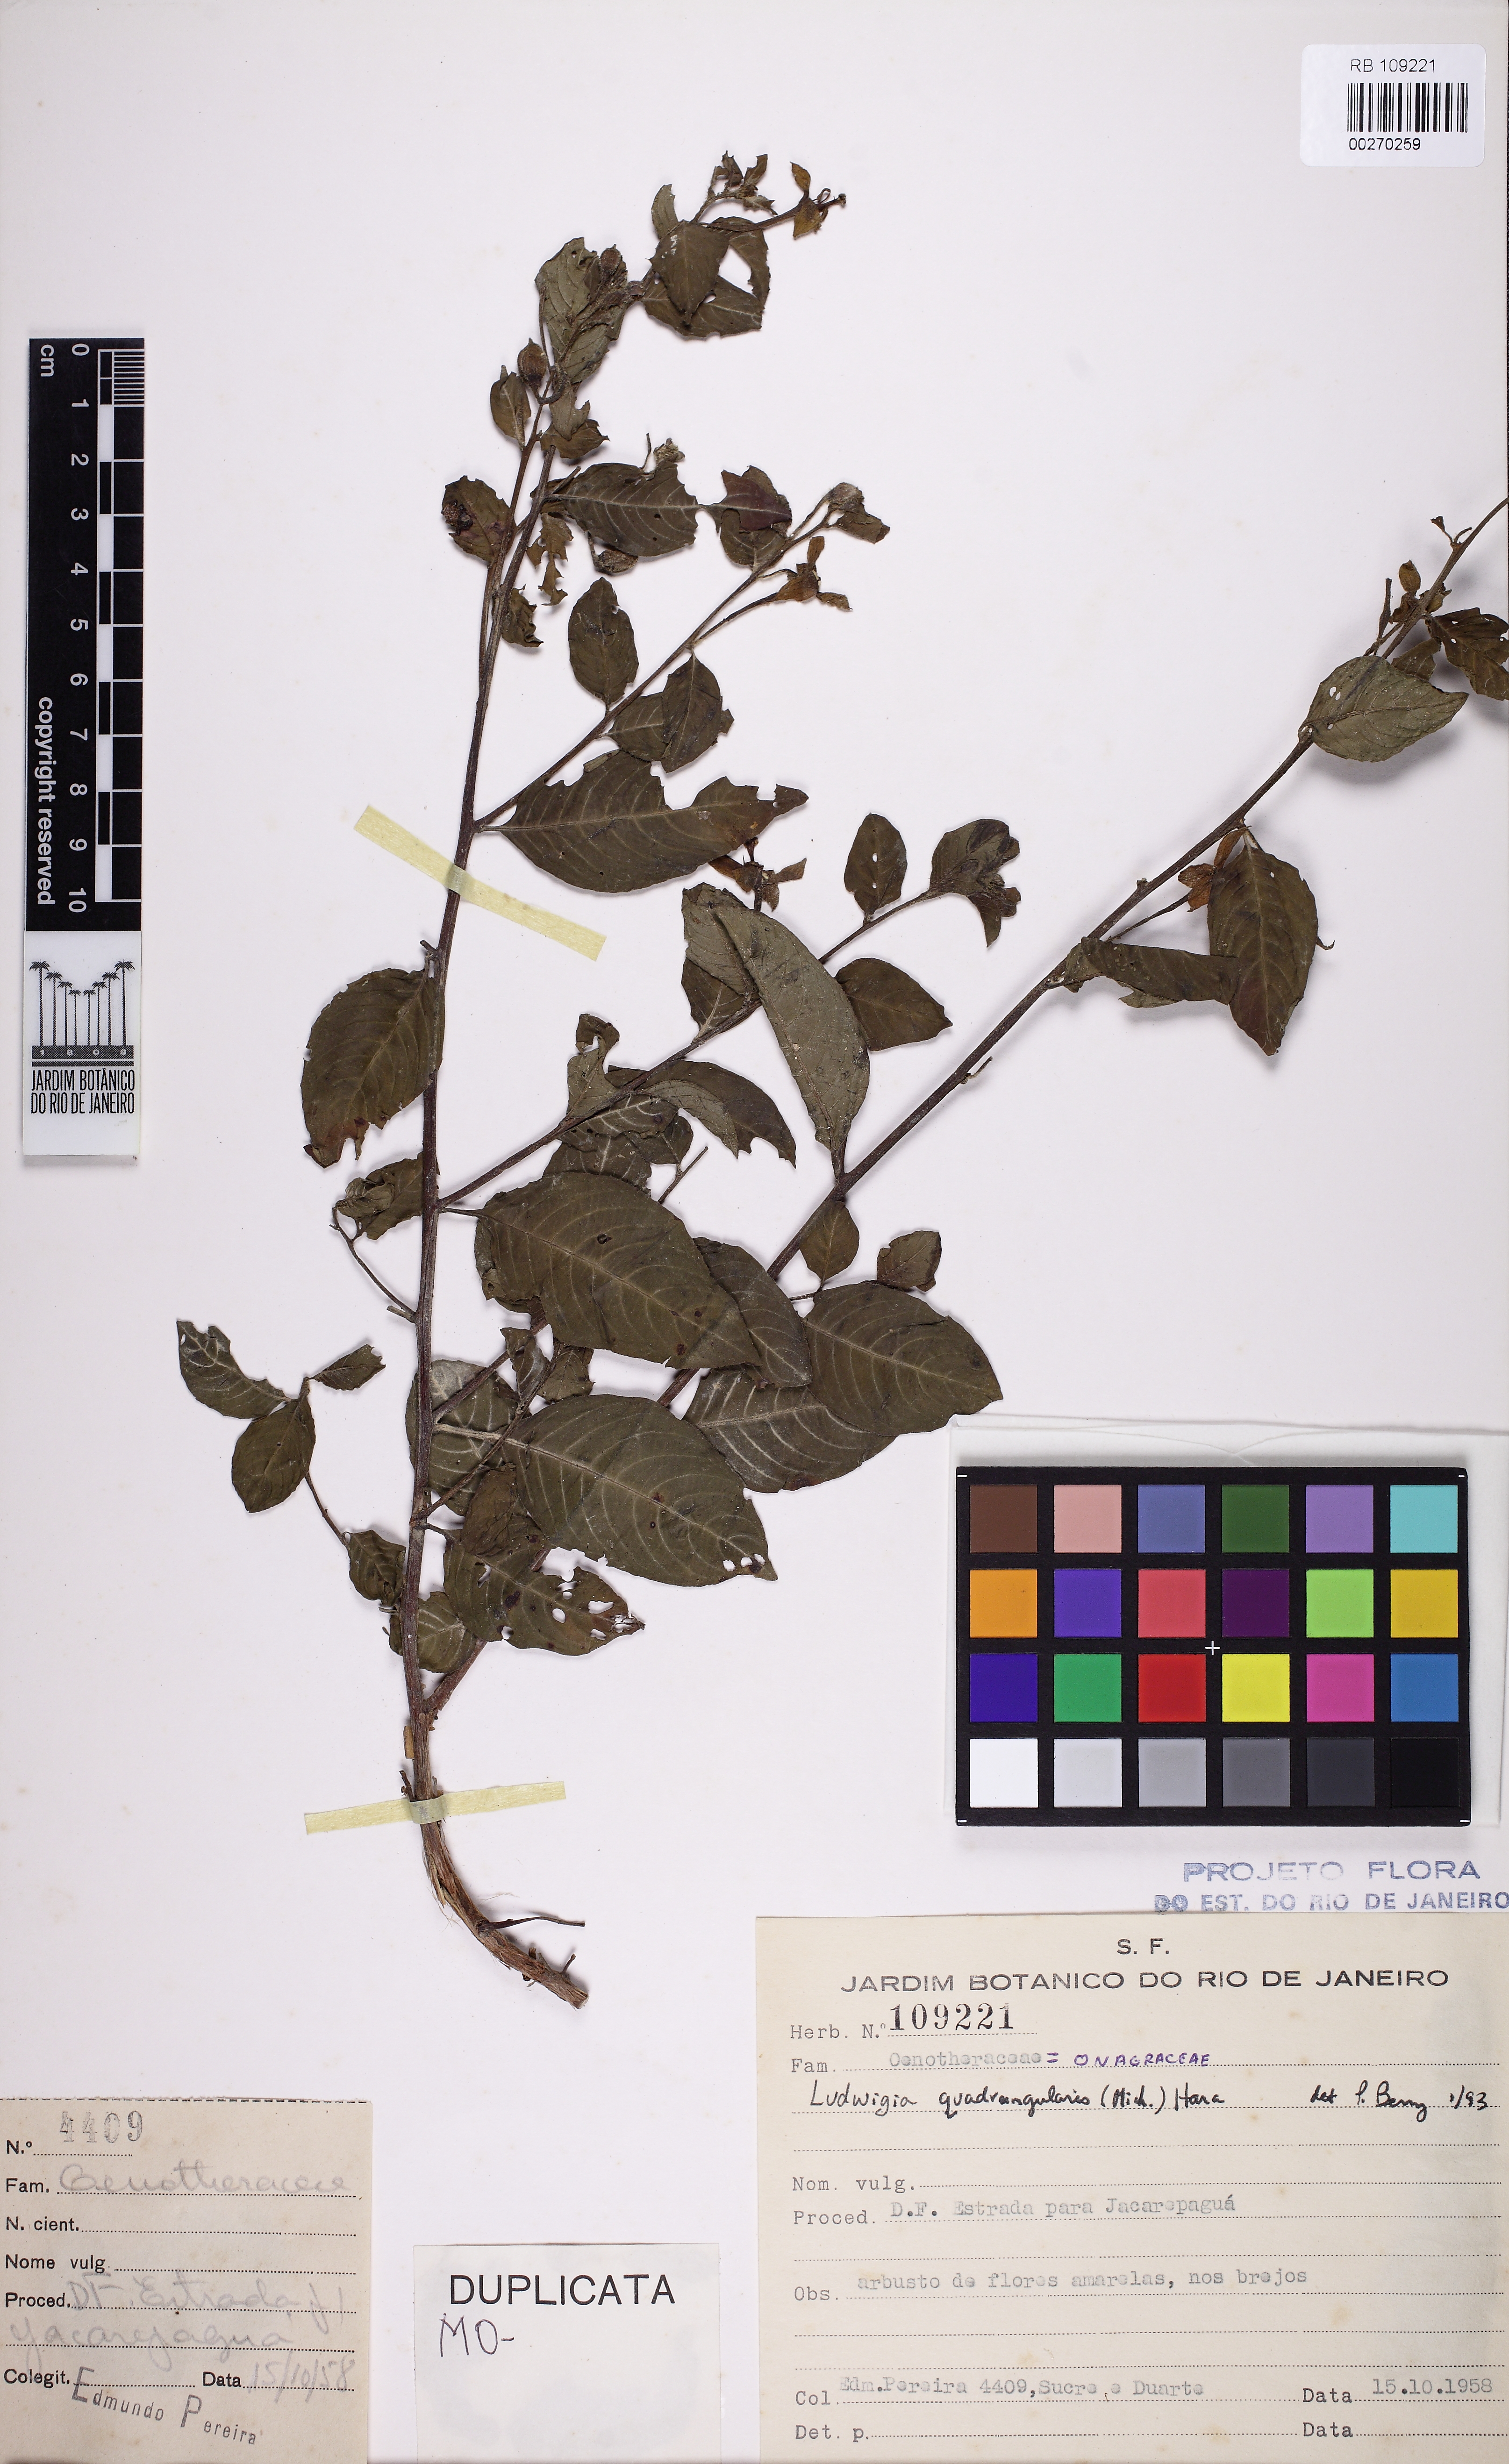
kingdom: Plantae
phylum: Tracheophyta
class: Magnoliopsida
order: Myrtales
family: Onagraceae
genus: Ludwigia
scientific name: Ludwigia quadrangularis
